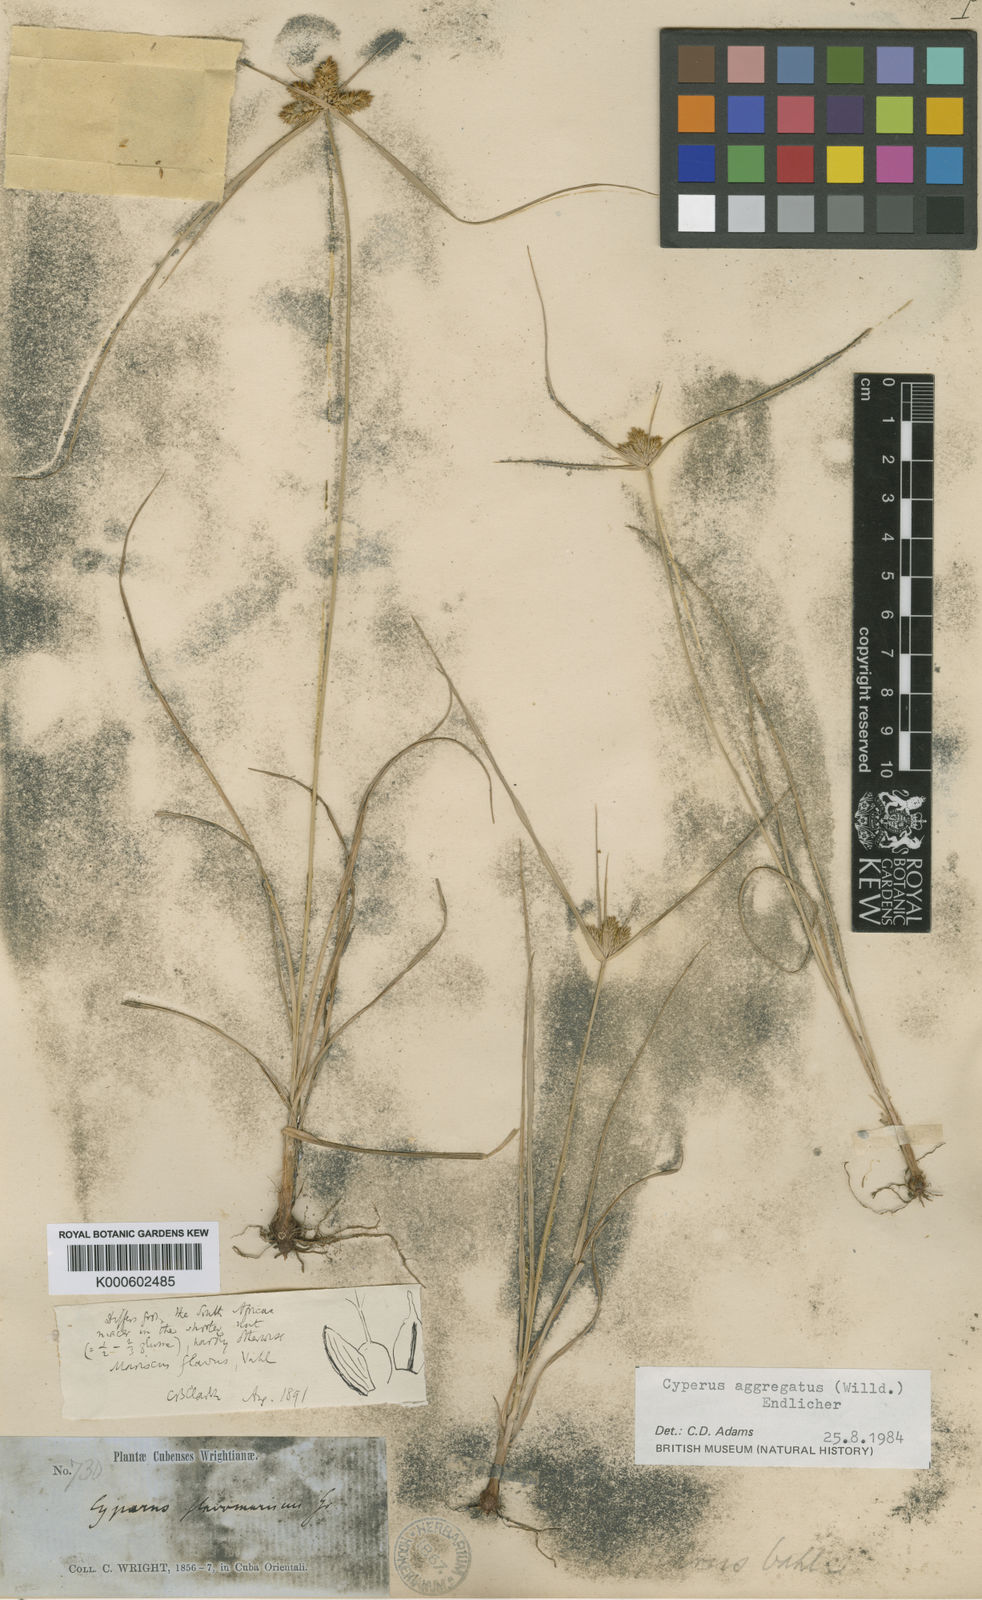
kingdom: Plantae
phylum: Tracheophyta
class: Liliopsida
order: Poales
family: Cyperaceae
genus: Cyperus
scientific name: Cyperus aggregatus
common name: Inflatedscale flatsedge
